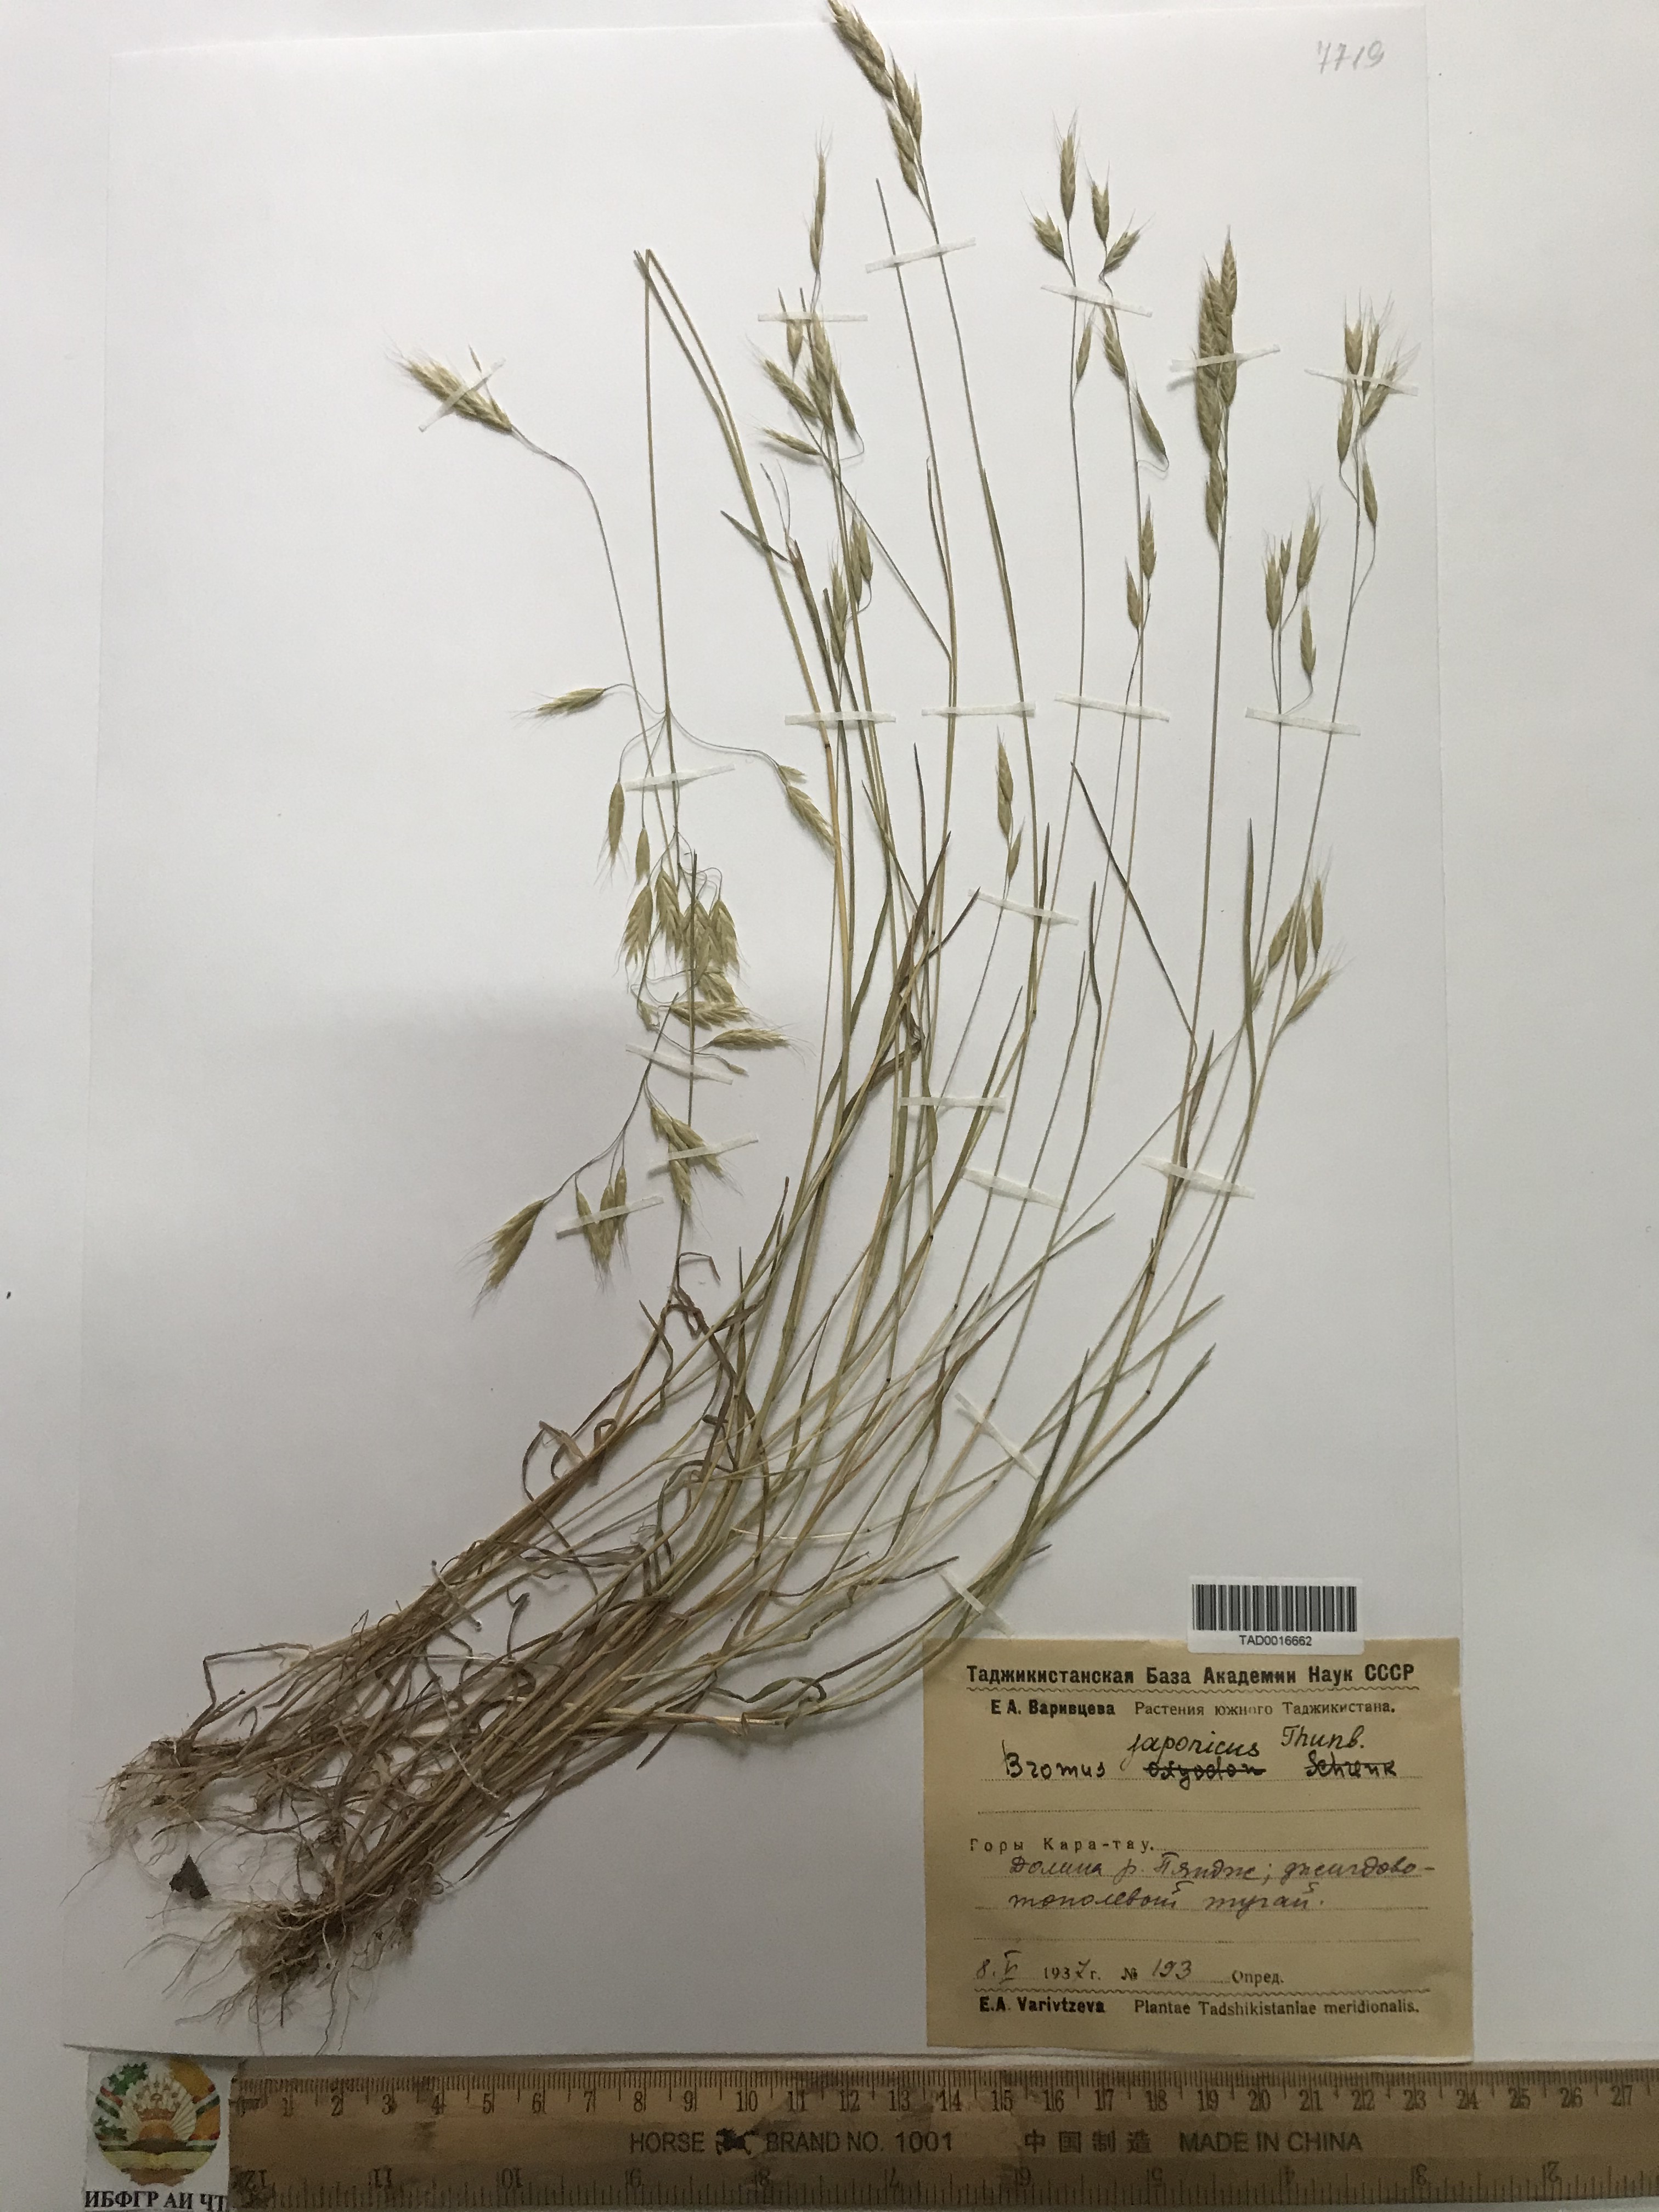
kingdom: Plantae
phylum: Tracheophyta
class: Liliopsida
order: Poales
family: Poaceae
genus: Bromus
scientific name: Bromus japonicus
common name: Japanese brome
